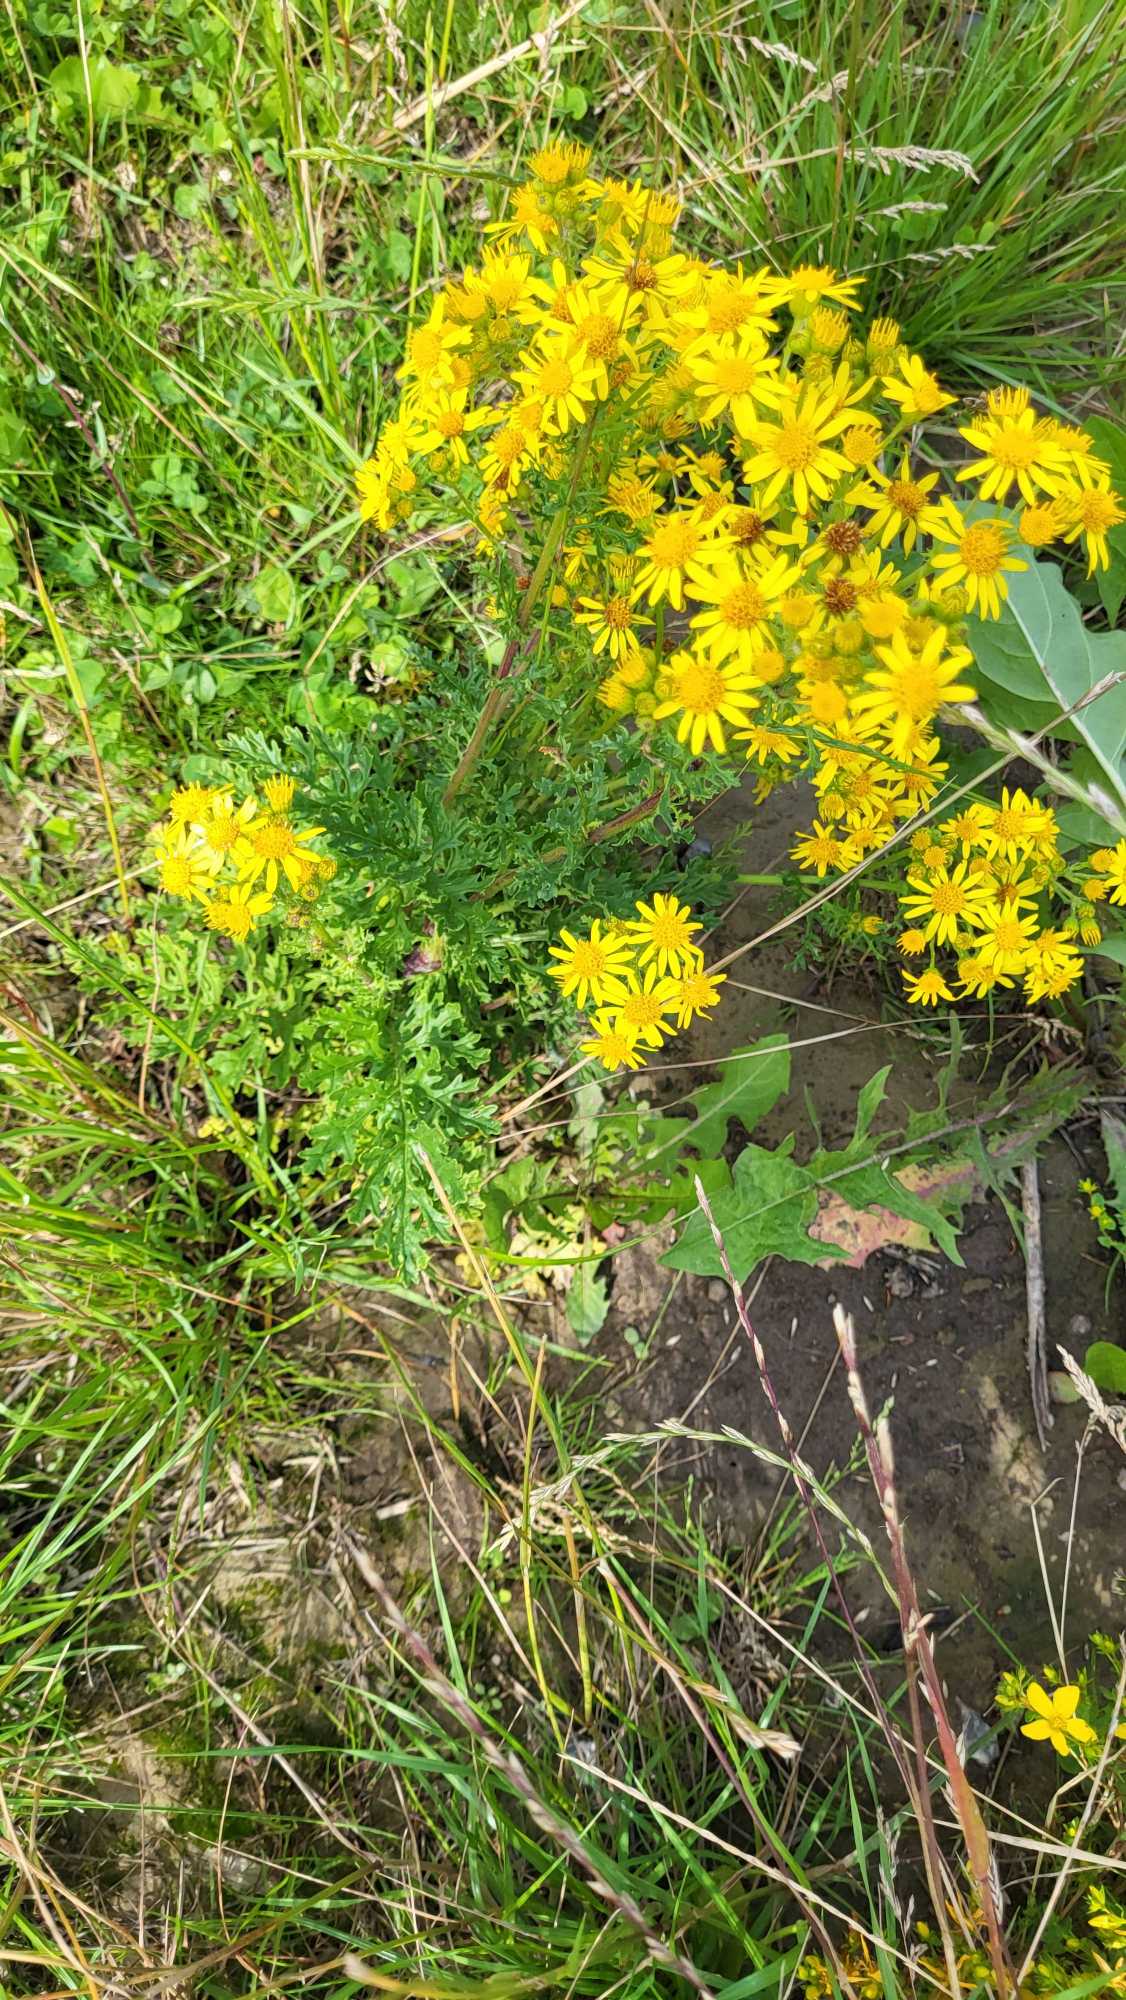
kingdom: Plantae
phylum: Tracheophyta
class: Magnoliopsida
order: Asterales
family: Asteraceae
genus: Jacobaea
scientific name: Jacobaea vulgaris
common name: Eng-brandbæger
